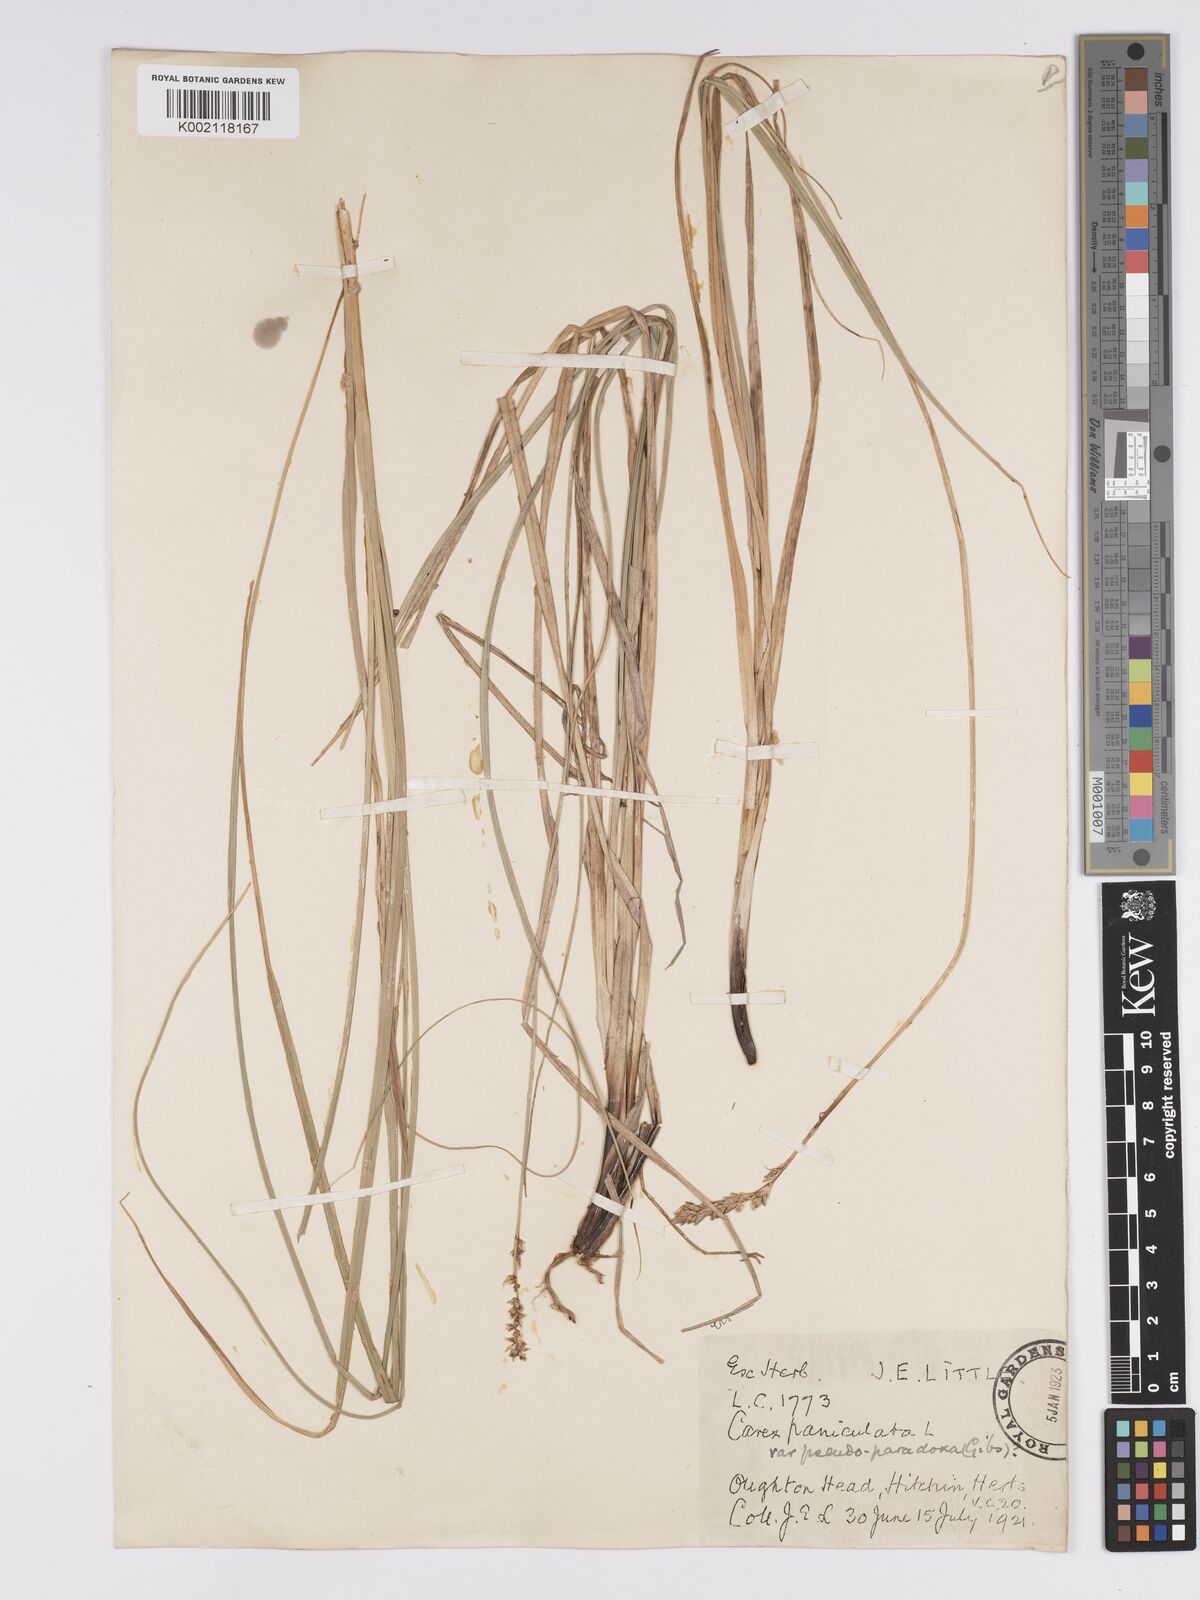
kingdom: Plantae
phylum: Tracheophyta
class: Liliopsida
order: Poales
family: Cyperaceae
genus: Carex
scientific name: Carex paniculata
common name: Greater tussock-sedge
